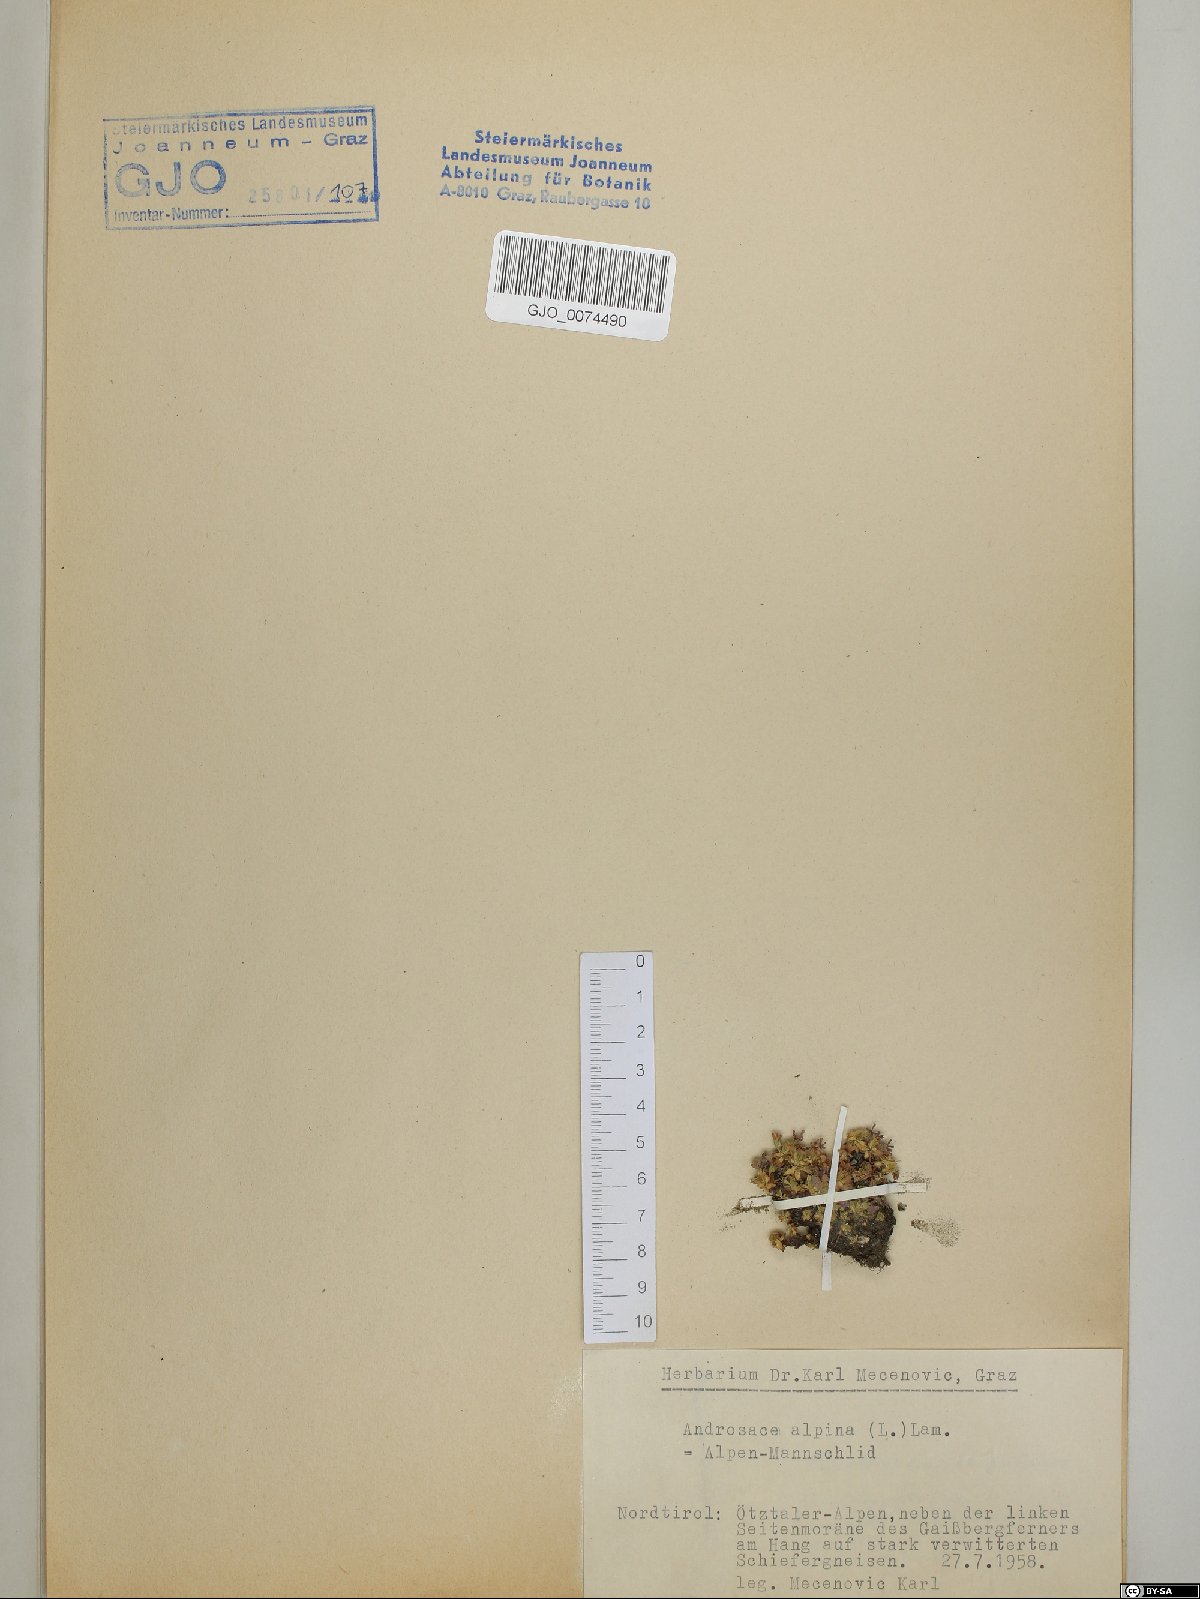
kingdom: Plantae
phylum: Tracheophyta
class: Magnoliopsida
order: Ericales
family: Primulaceae
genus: Androsace
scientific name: Androsace alpina
